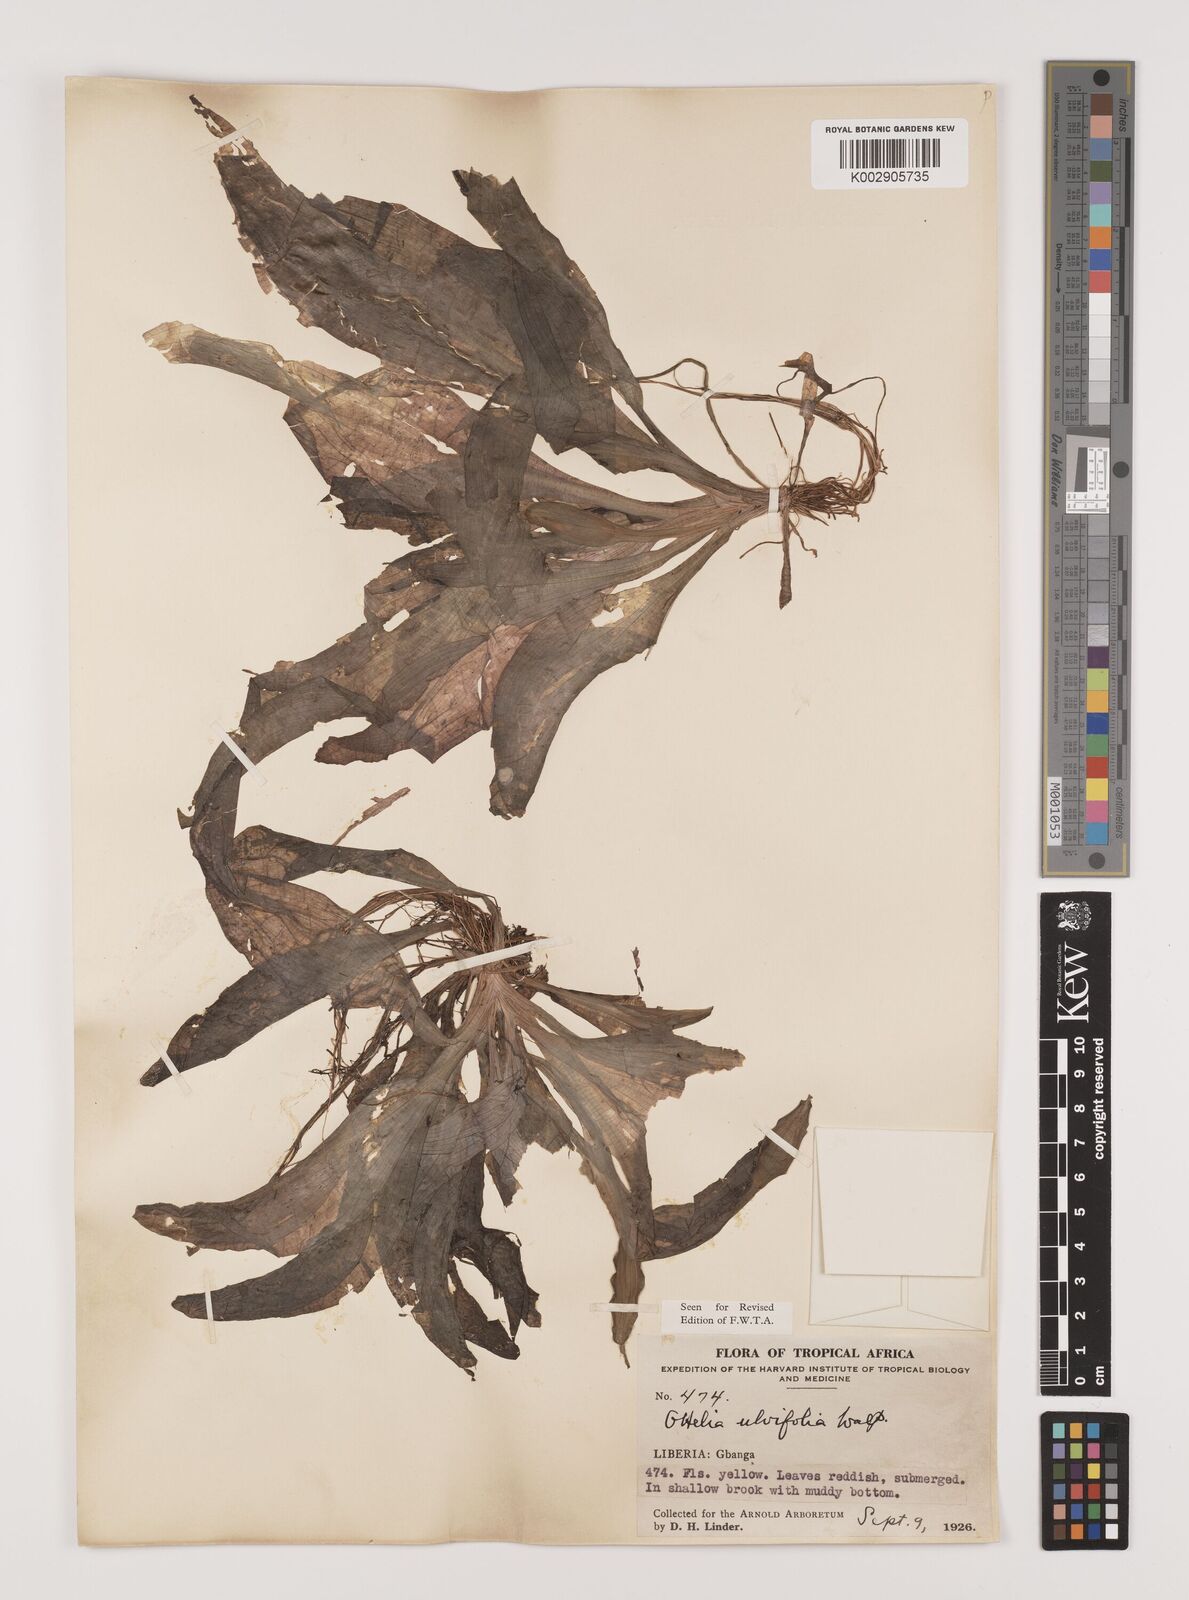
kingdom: Plantae
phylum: Tracheophyta
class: Liliopsida
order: Alismatales
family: Hydrocharitaceae
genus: Ottelia
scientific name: Ottelia ulvifolia
